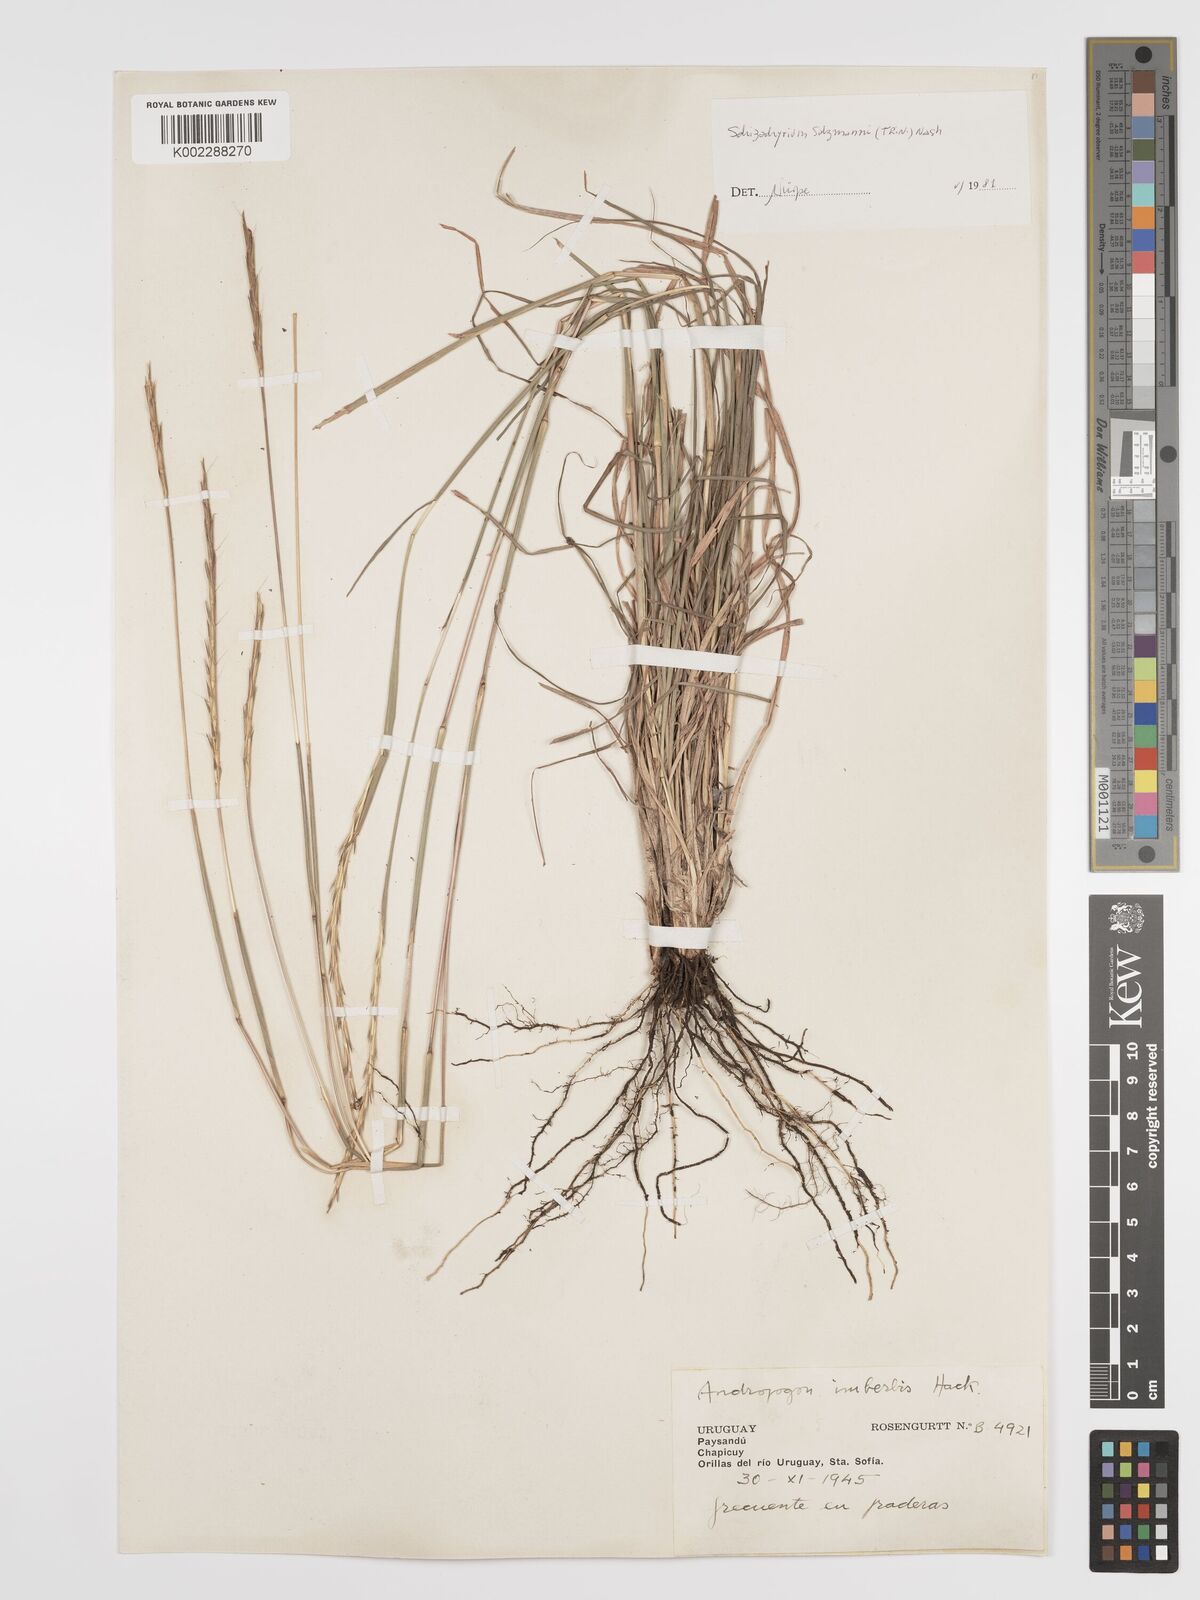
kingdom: Plantae
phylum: Tracheophyta
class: Liliopsida
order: Poales
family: Poaceae
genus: Andropogon
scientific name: Andropogon salzmannii
